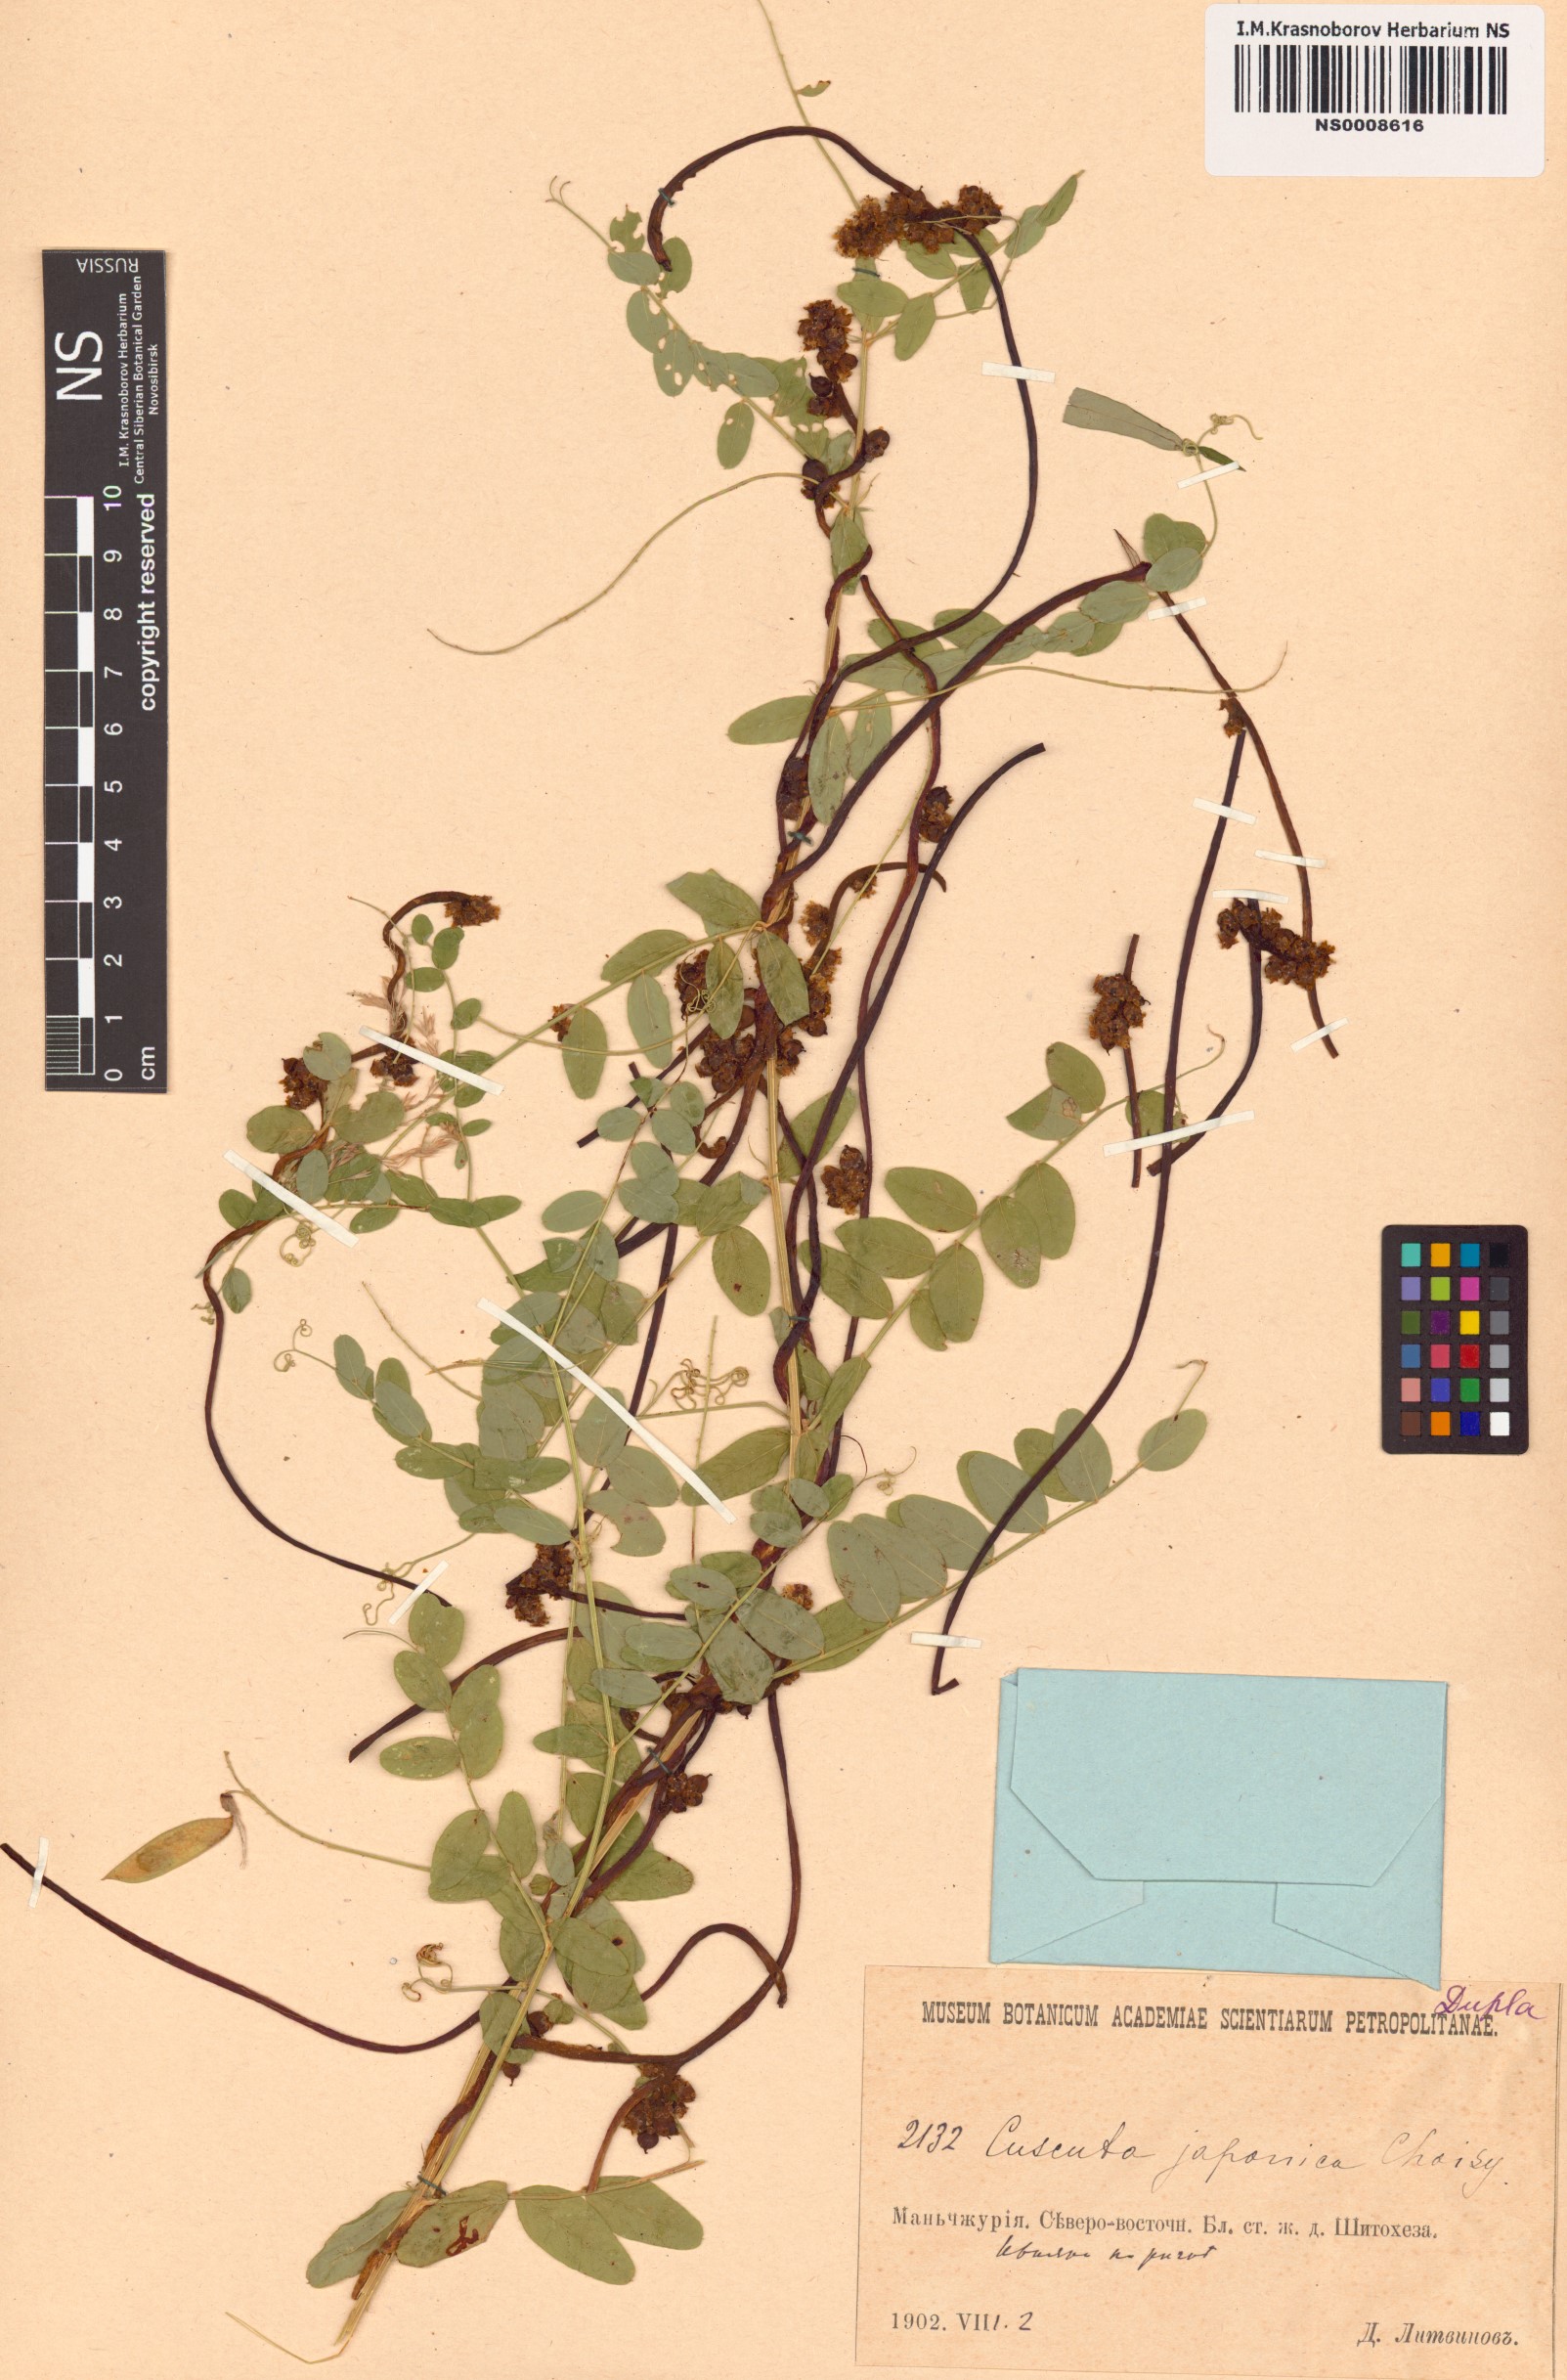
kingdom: Plantae
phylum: Tracheophyta
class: Magnoliopsida
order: Solanales
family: Convolvulaceae
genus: Cuscuta
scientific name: Cuscuta japonica
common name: Japanese dodder
